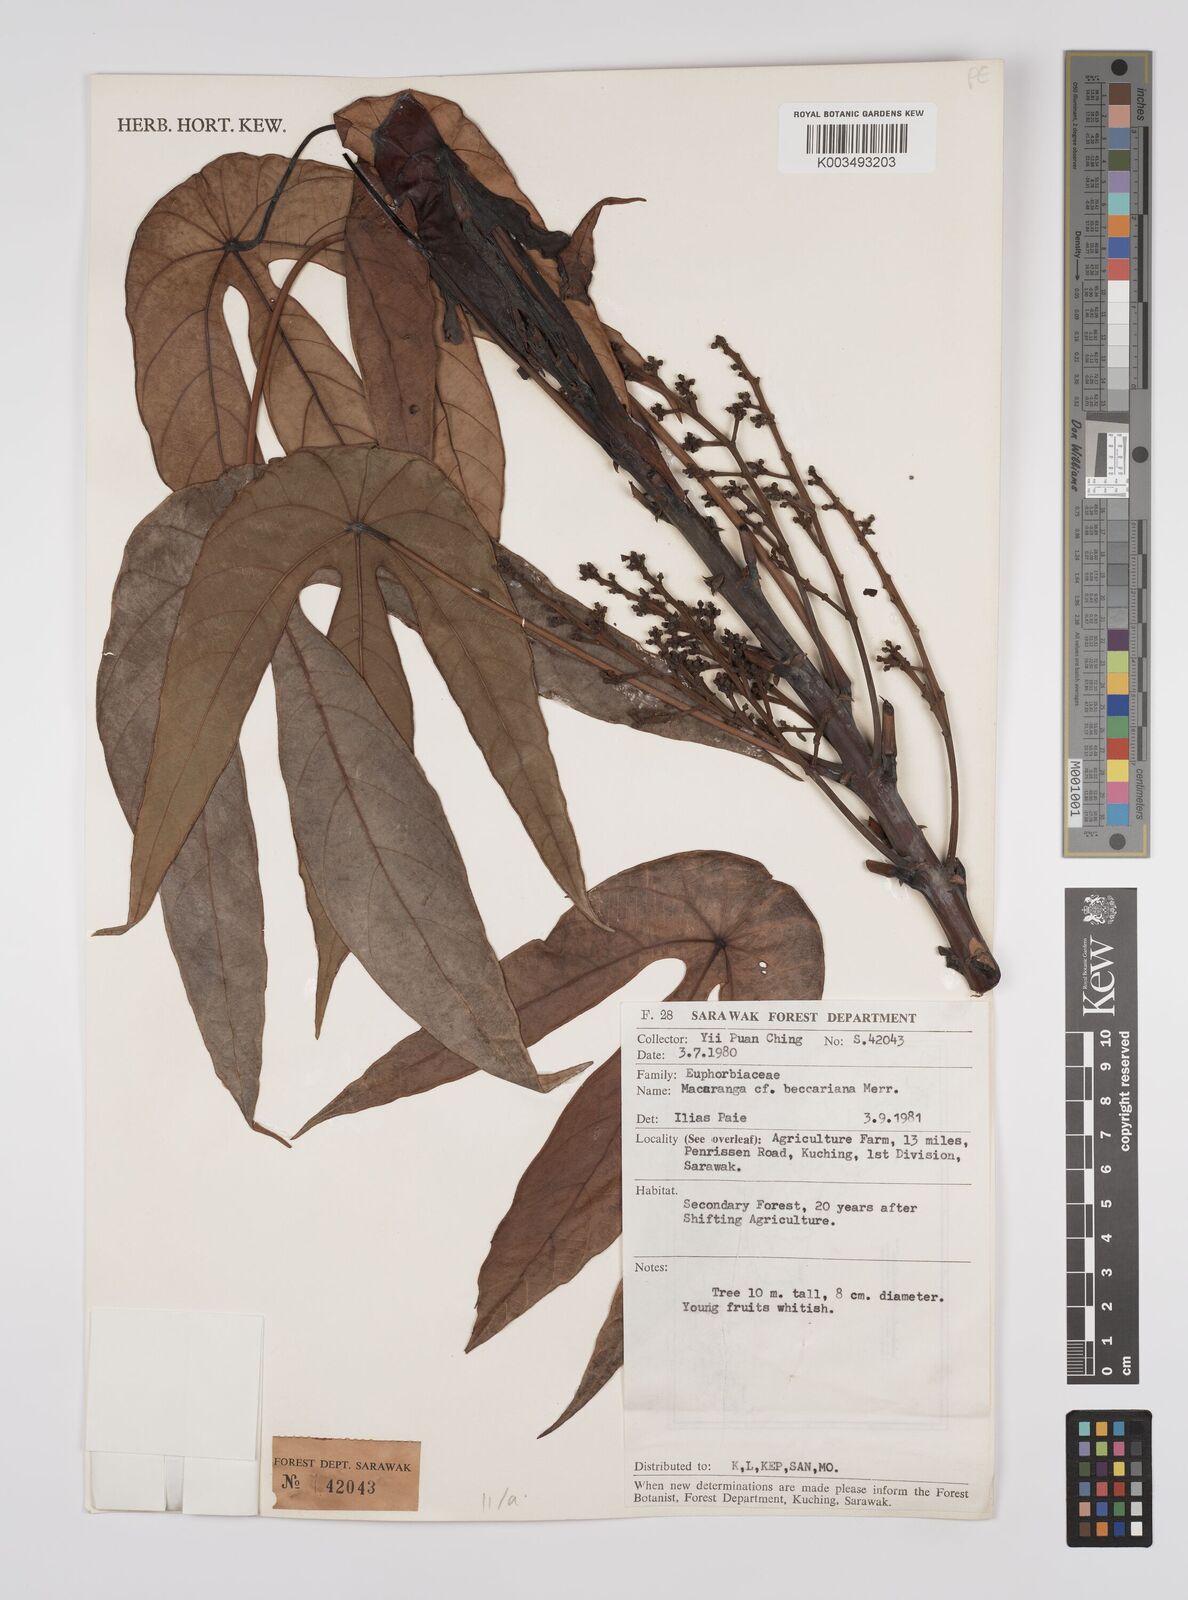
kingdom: Plantae
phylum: Tracheophyta
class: Magnoliopsida
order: Malpighiales
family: Euphorbiaceae
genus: Macaranga
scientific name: Macaranga beccariana
